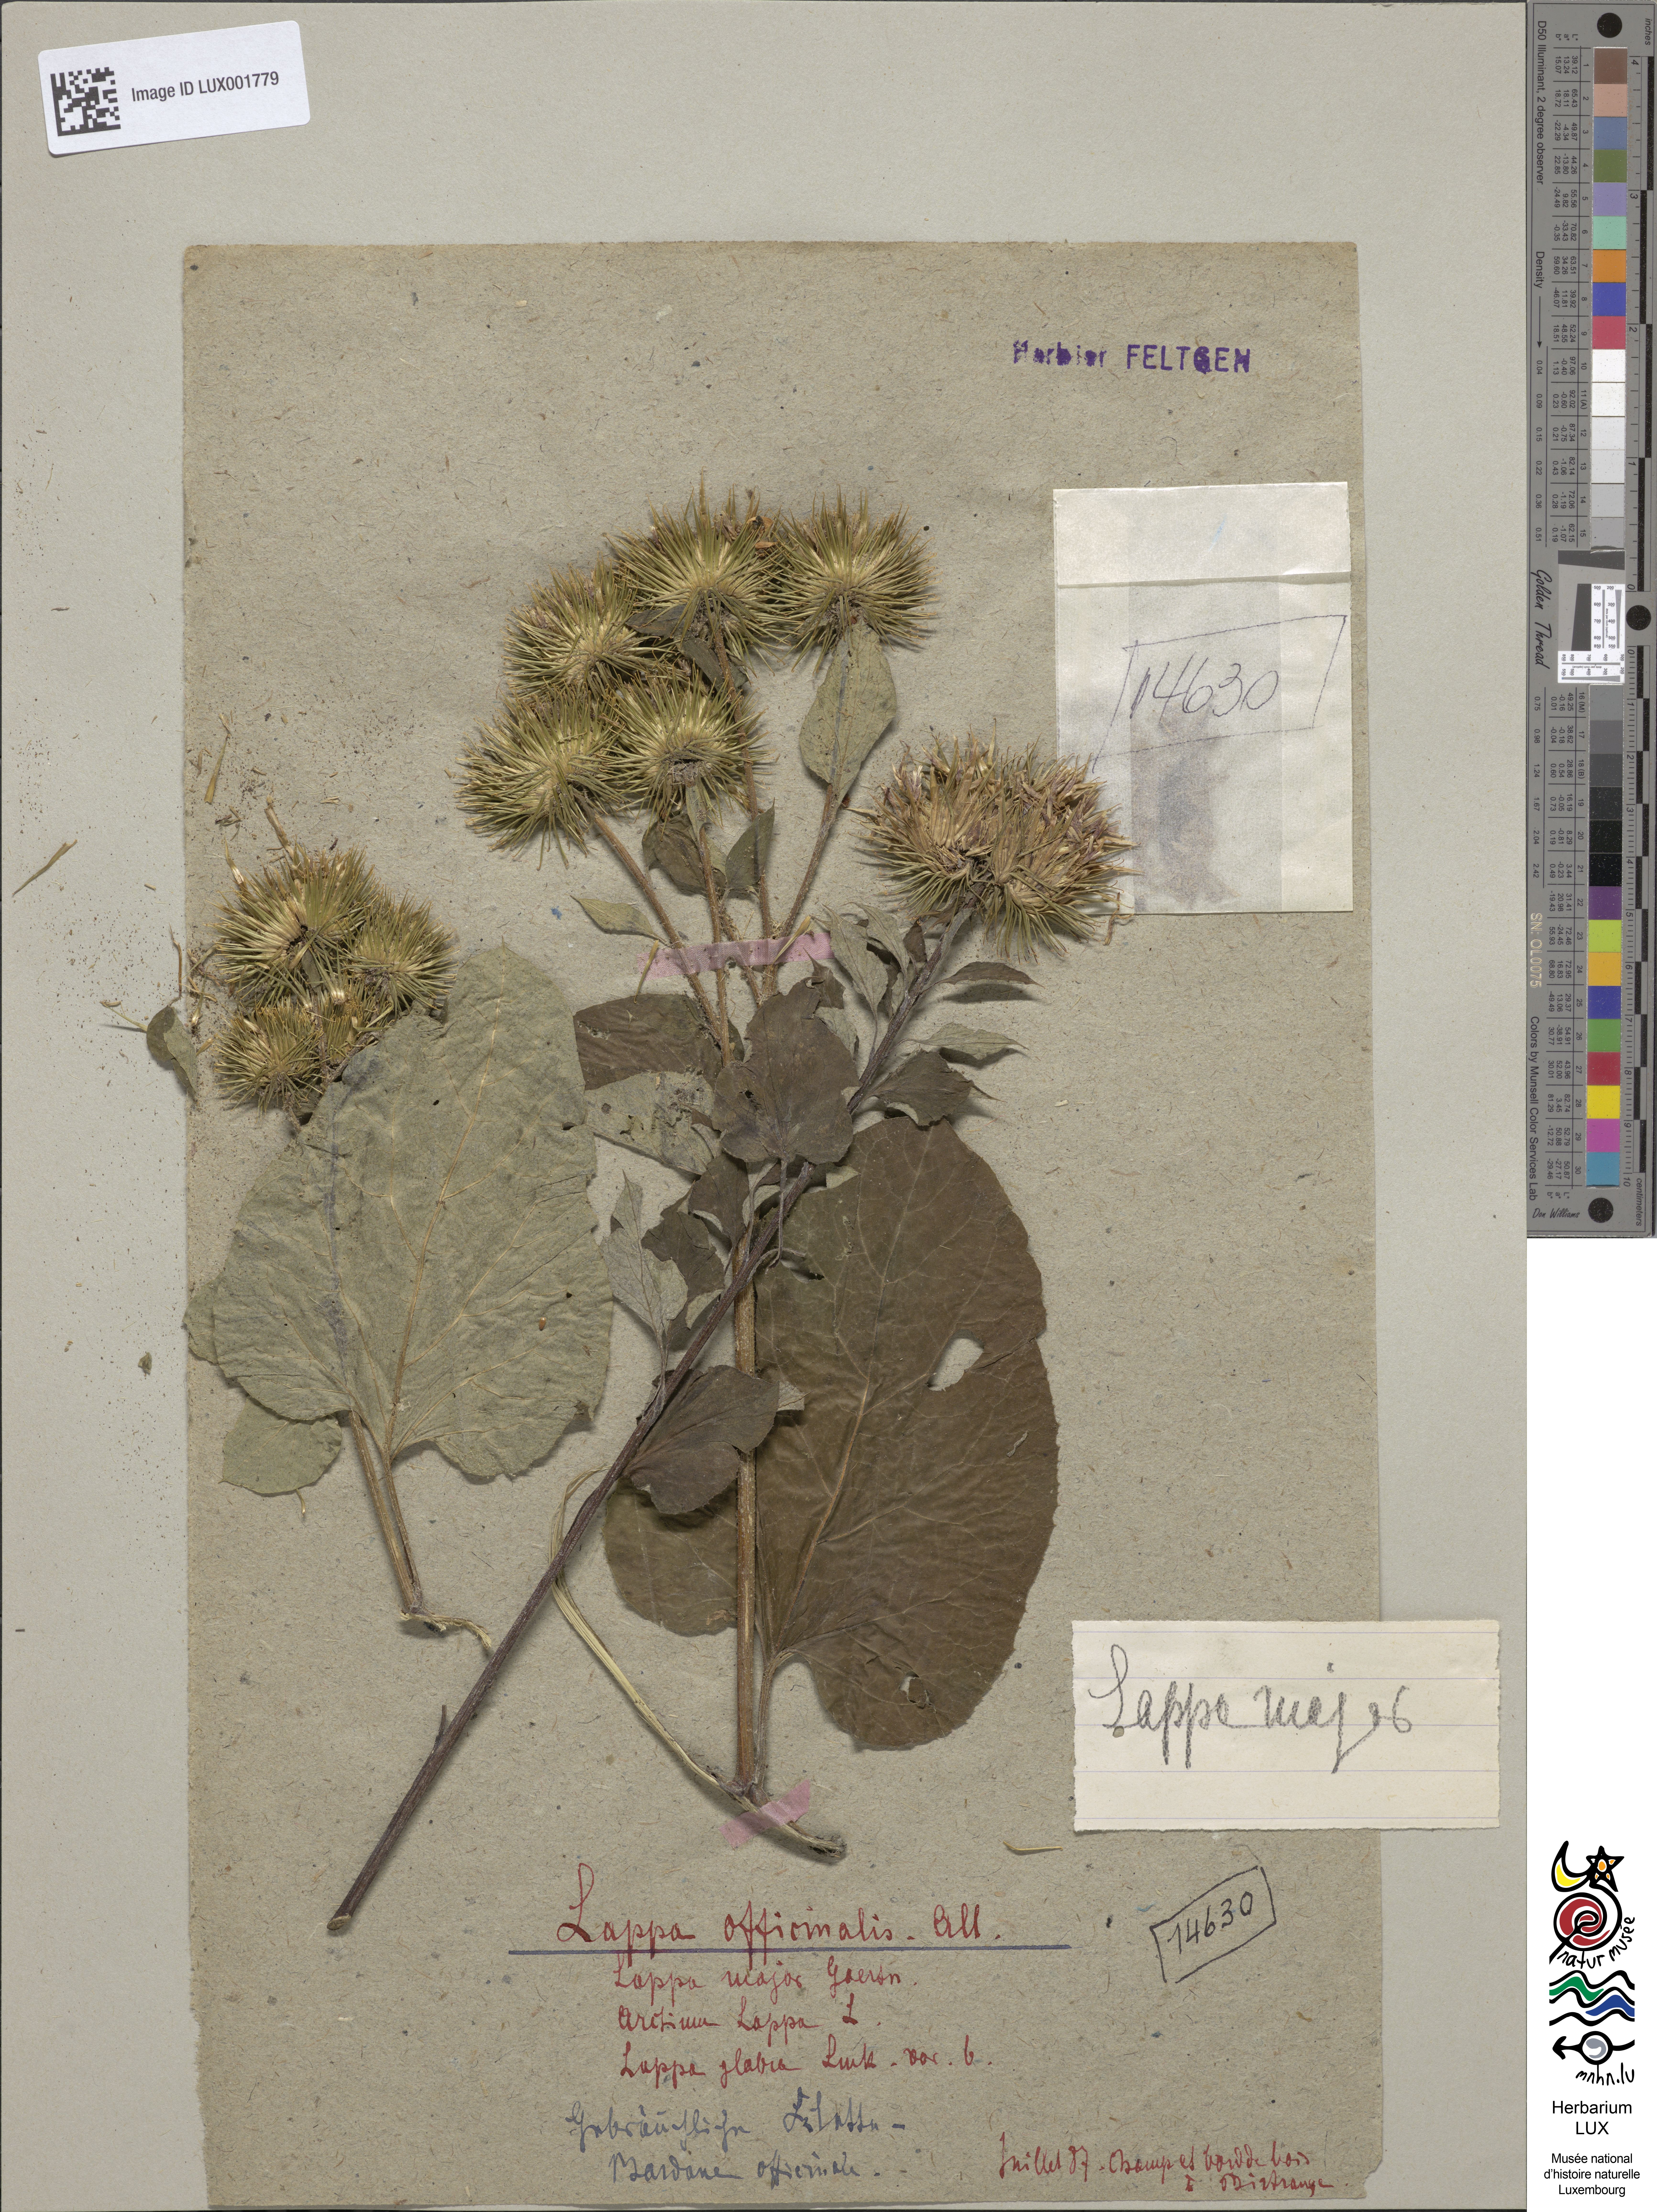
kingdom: Plantae
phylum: Tracheophyta
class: Magnoliopsida
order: Asterales
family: Asteraceae
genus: Arctium
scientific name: Arctium lappa
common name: Greater burdock
